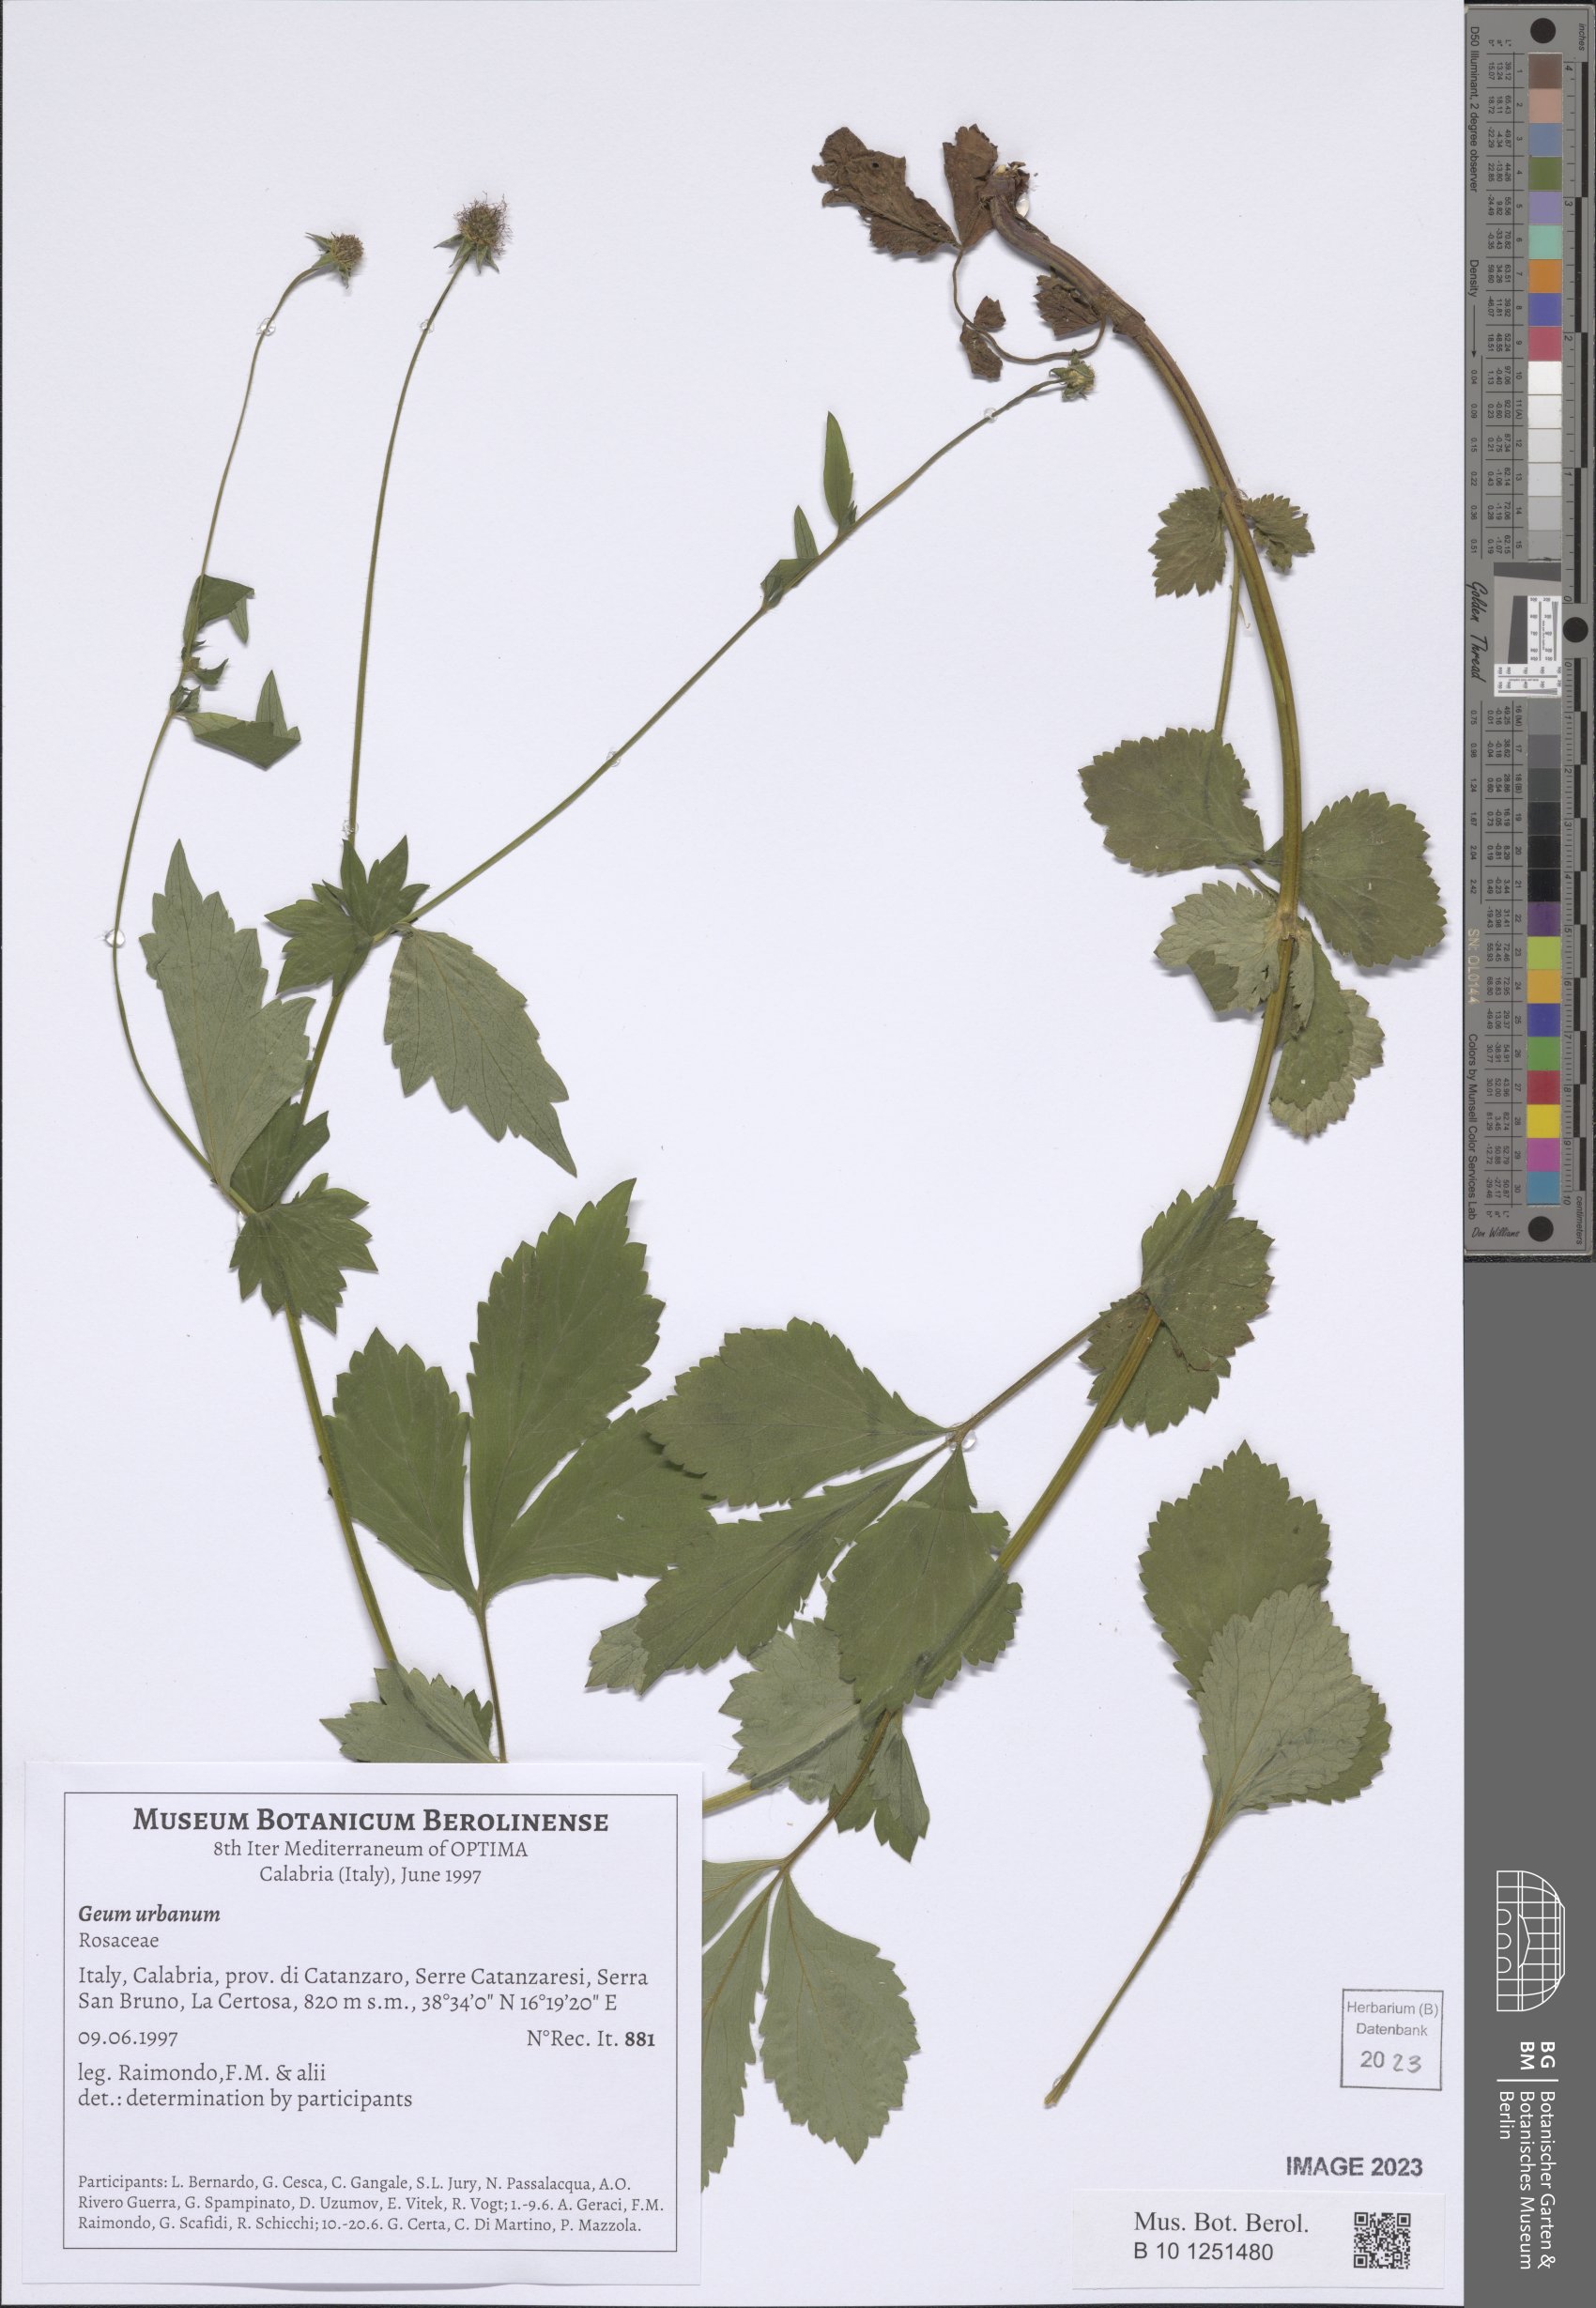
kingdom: Plantae
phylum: Tracheophyta
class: Magnoliopsida
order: Rosales
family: Rosaceae
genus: Geum
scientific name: Geum urbanum
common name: Wood avens
